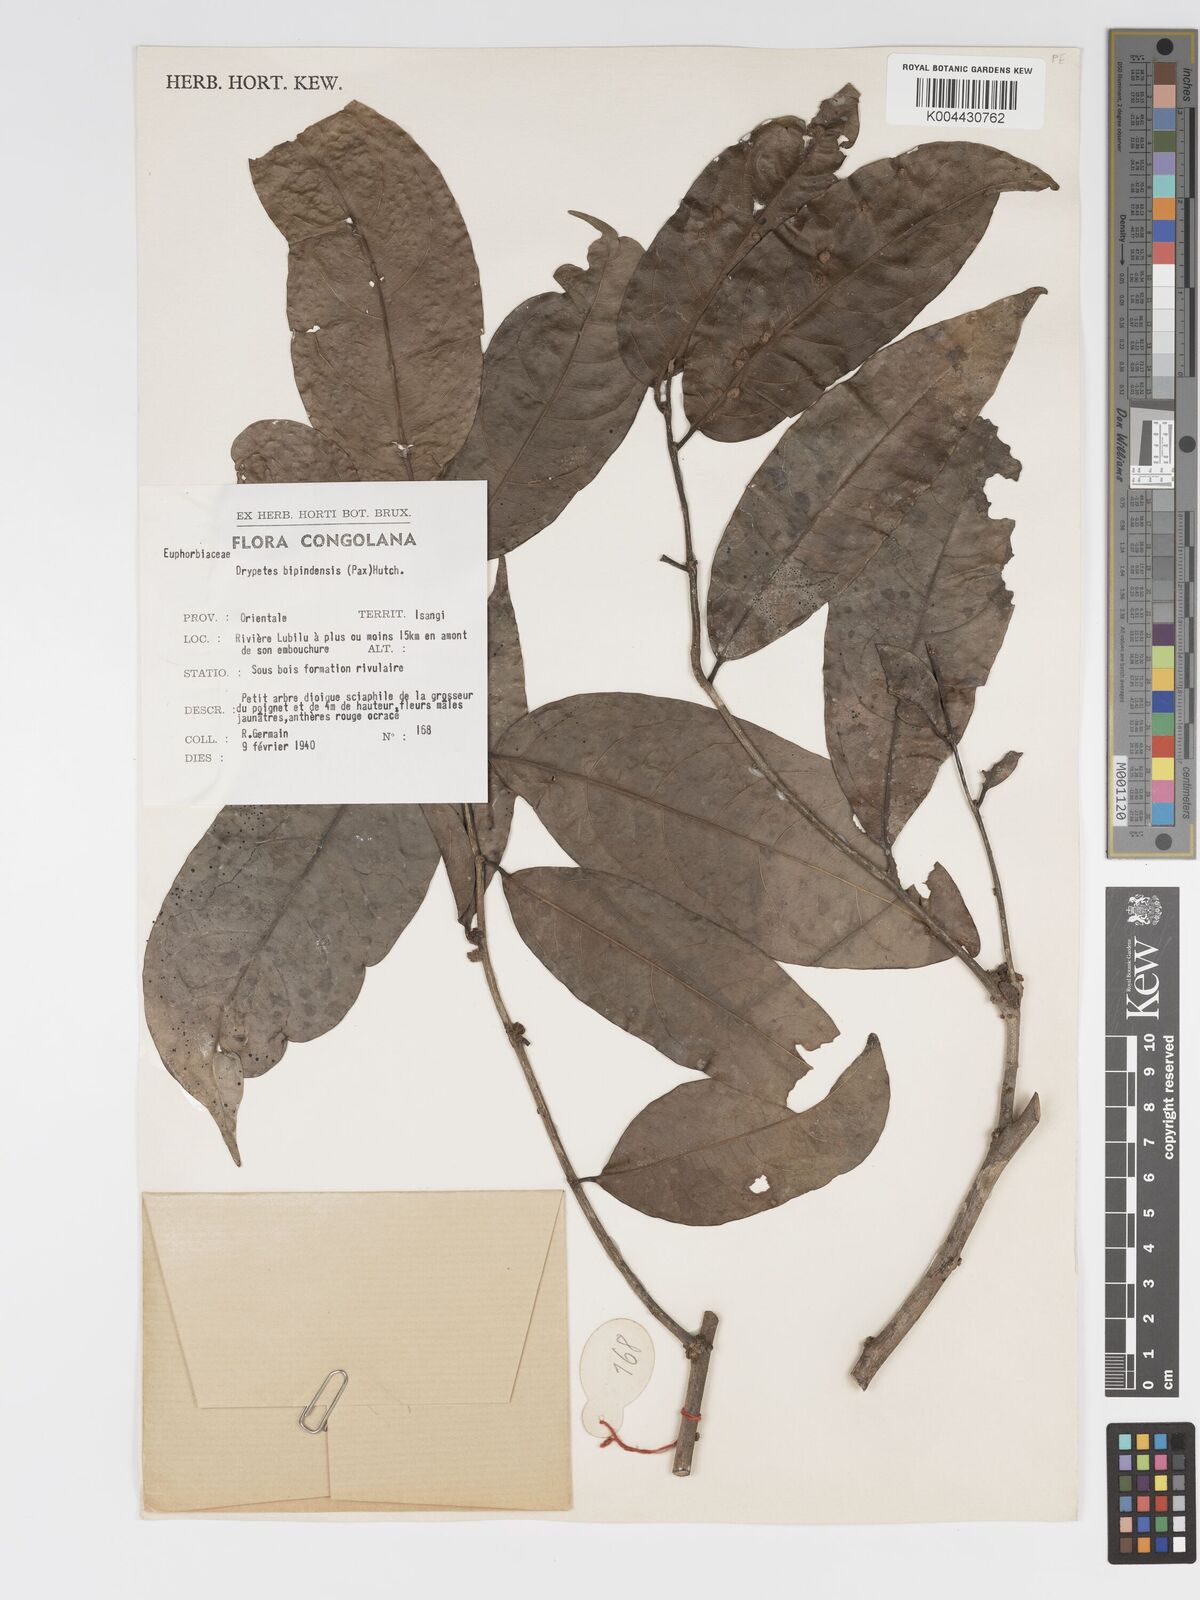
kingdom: Plantae
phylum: Tracheophyta
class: Magnoliopsida
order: Malpighiales
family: Putranjivaceae
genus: Drypetes
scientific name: Drypetes bipindensis
